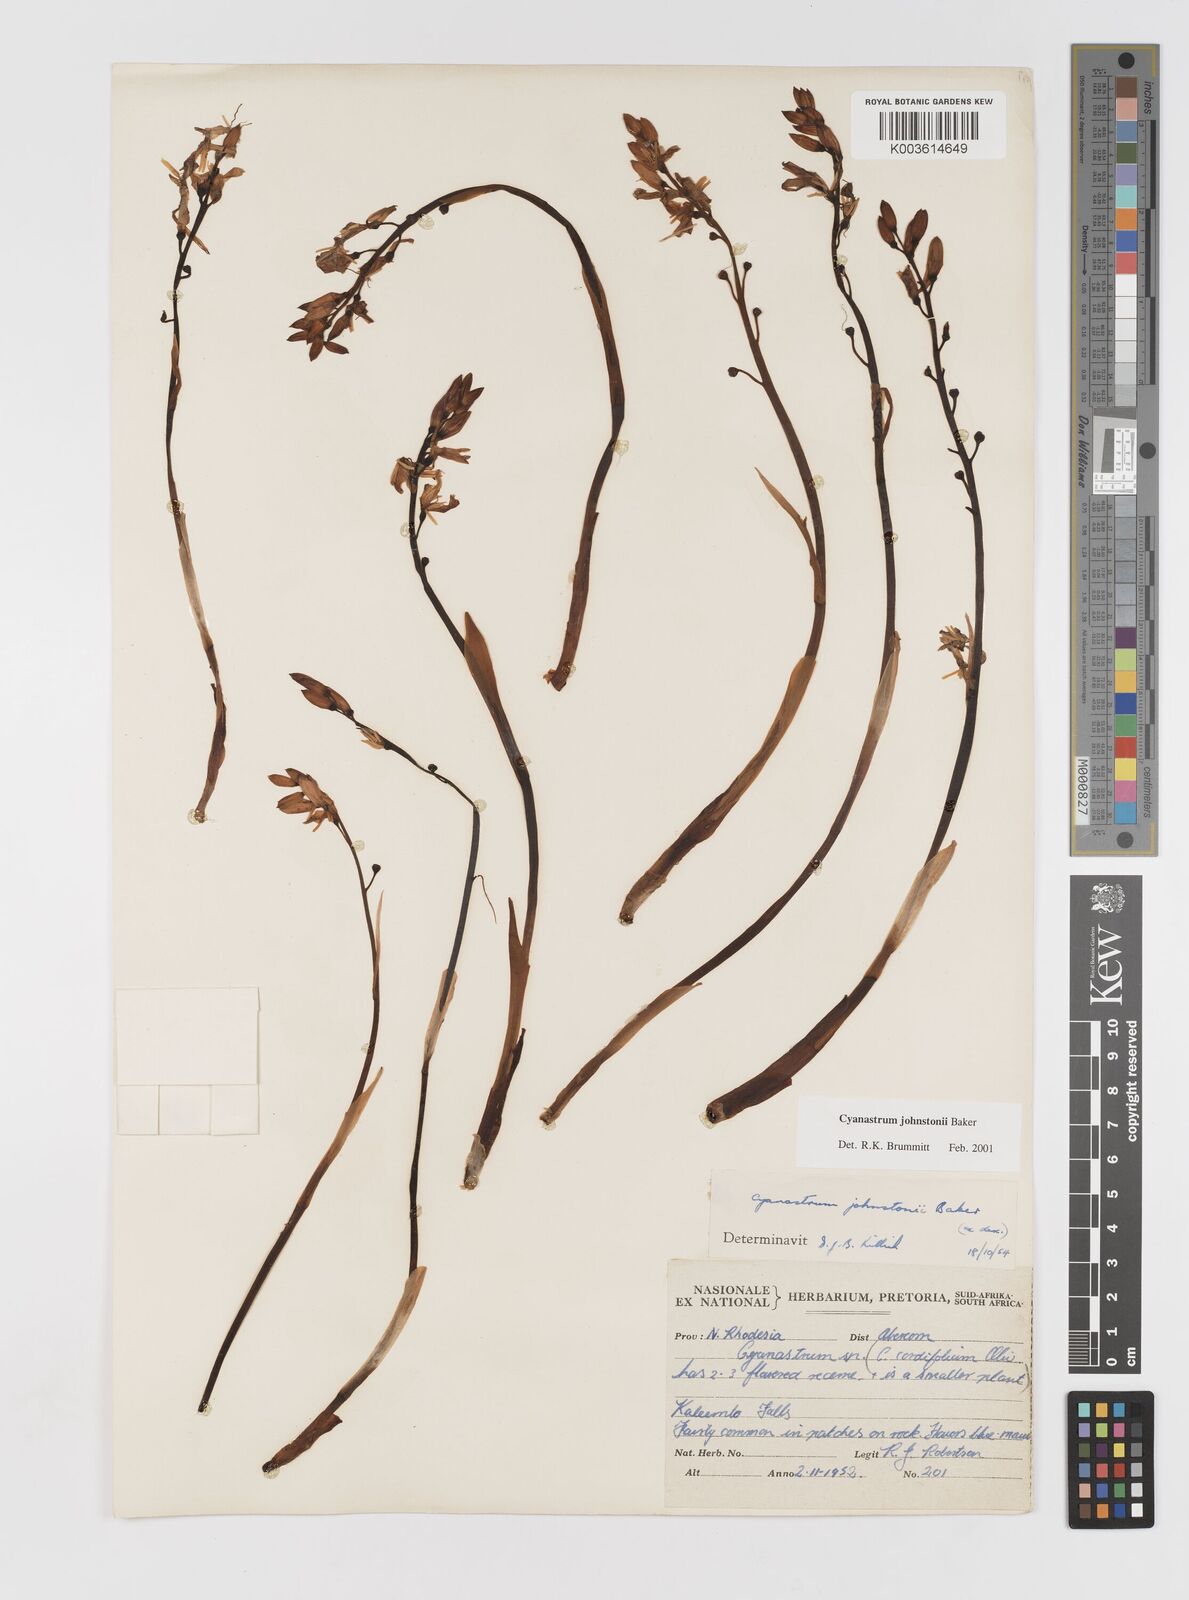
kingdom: Plantae
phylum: Tracheophyta
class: Liliopsida
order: Asparagales
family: Tecophilaeaceae
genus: Cyanastrum
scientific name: Cyanastrum johnstonii
